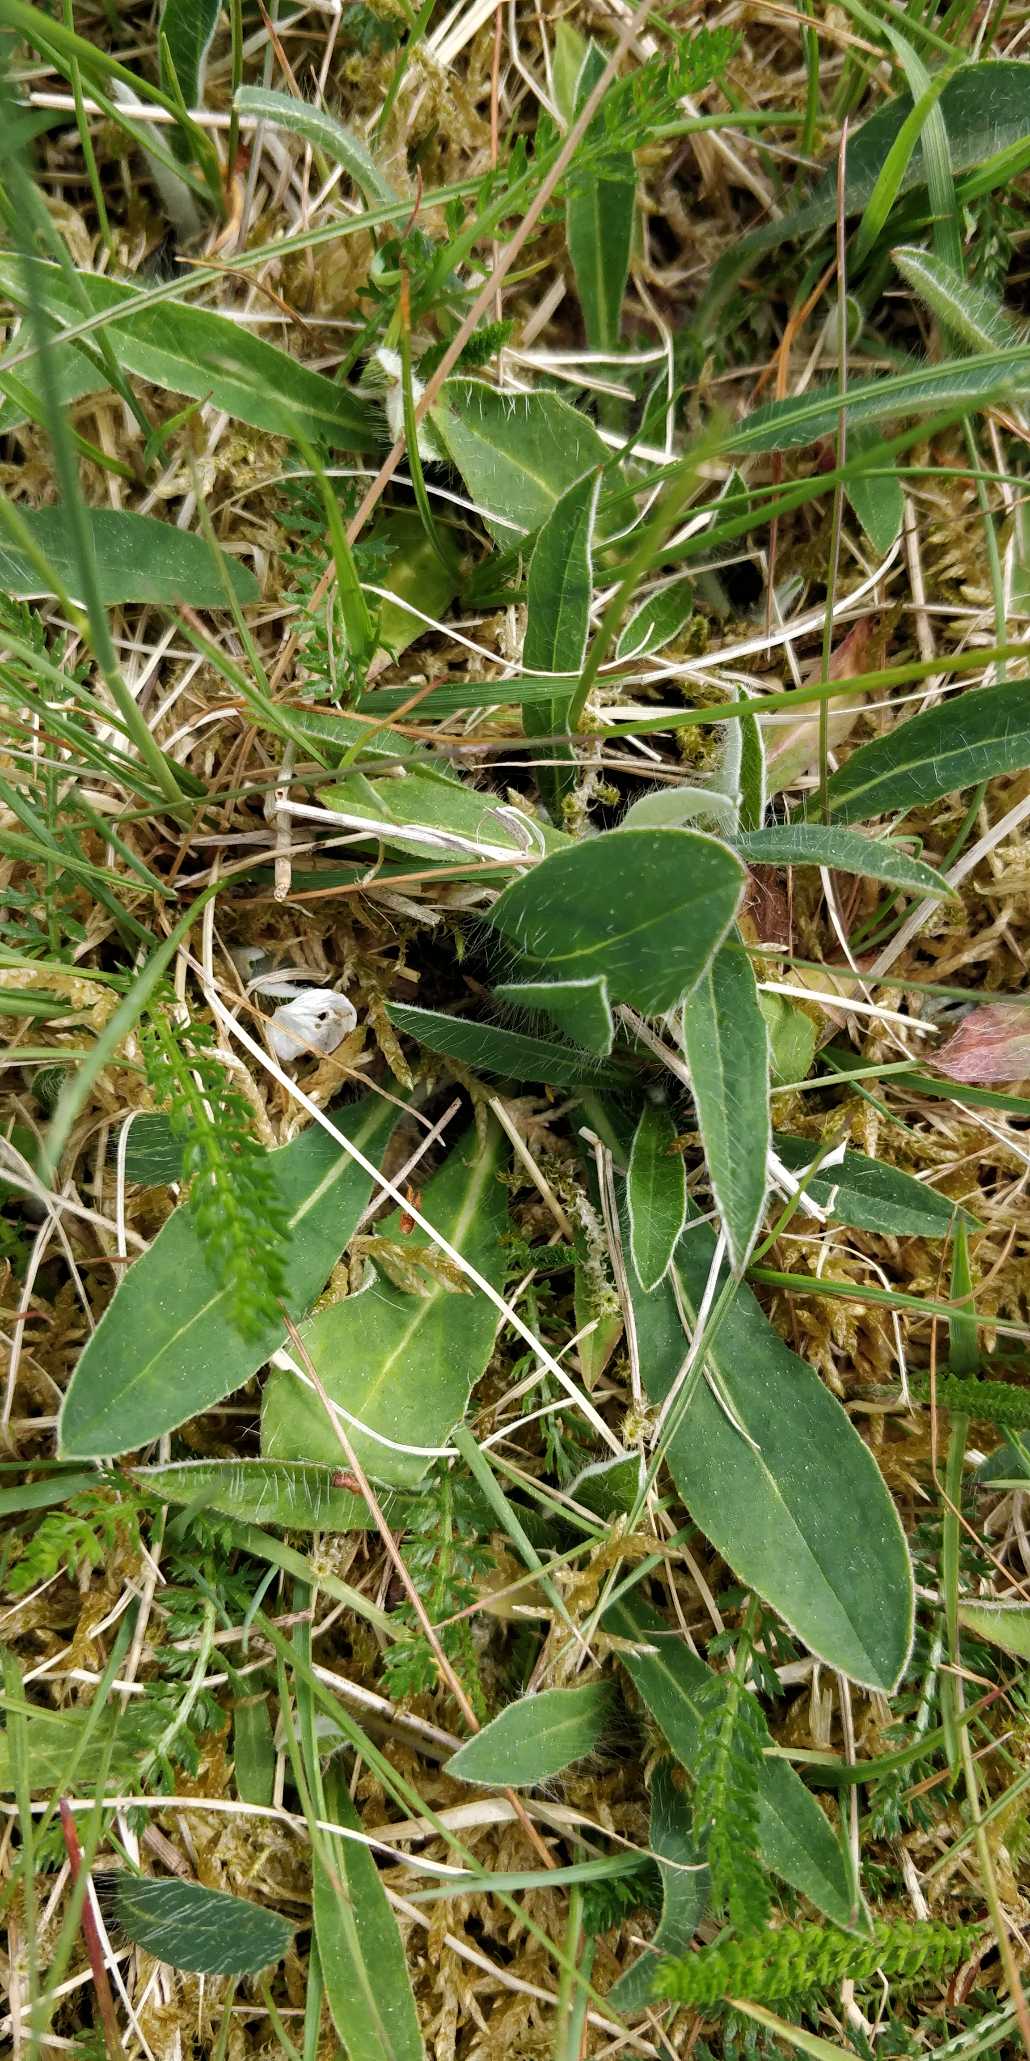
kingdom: Plantae
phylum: Tracheophyta
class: Magnoliopsida
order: Asterales
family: Asteraceae
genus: Pilosella
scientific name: Pilosella officinarum
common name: Håret høgeurt
